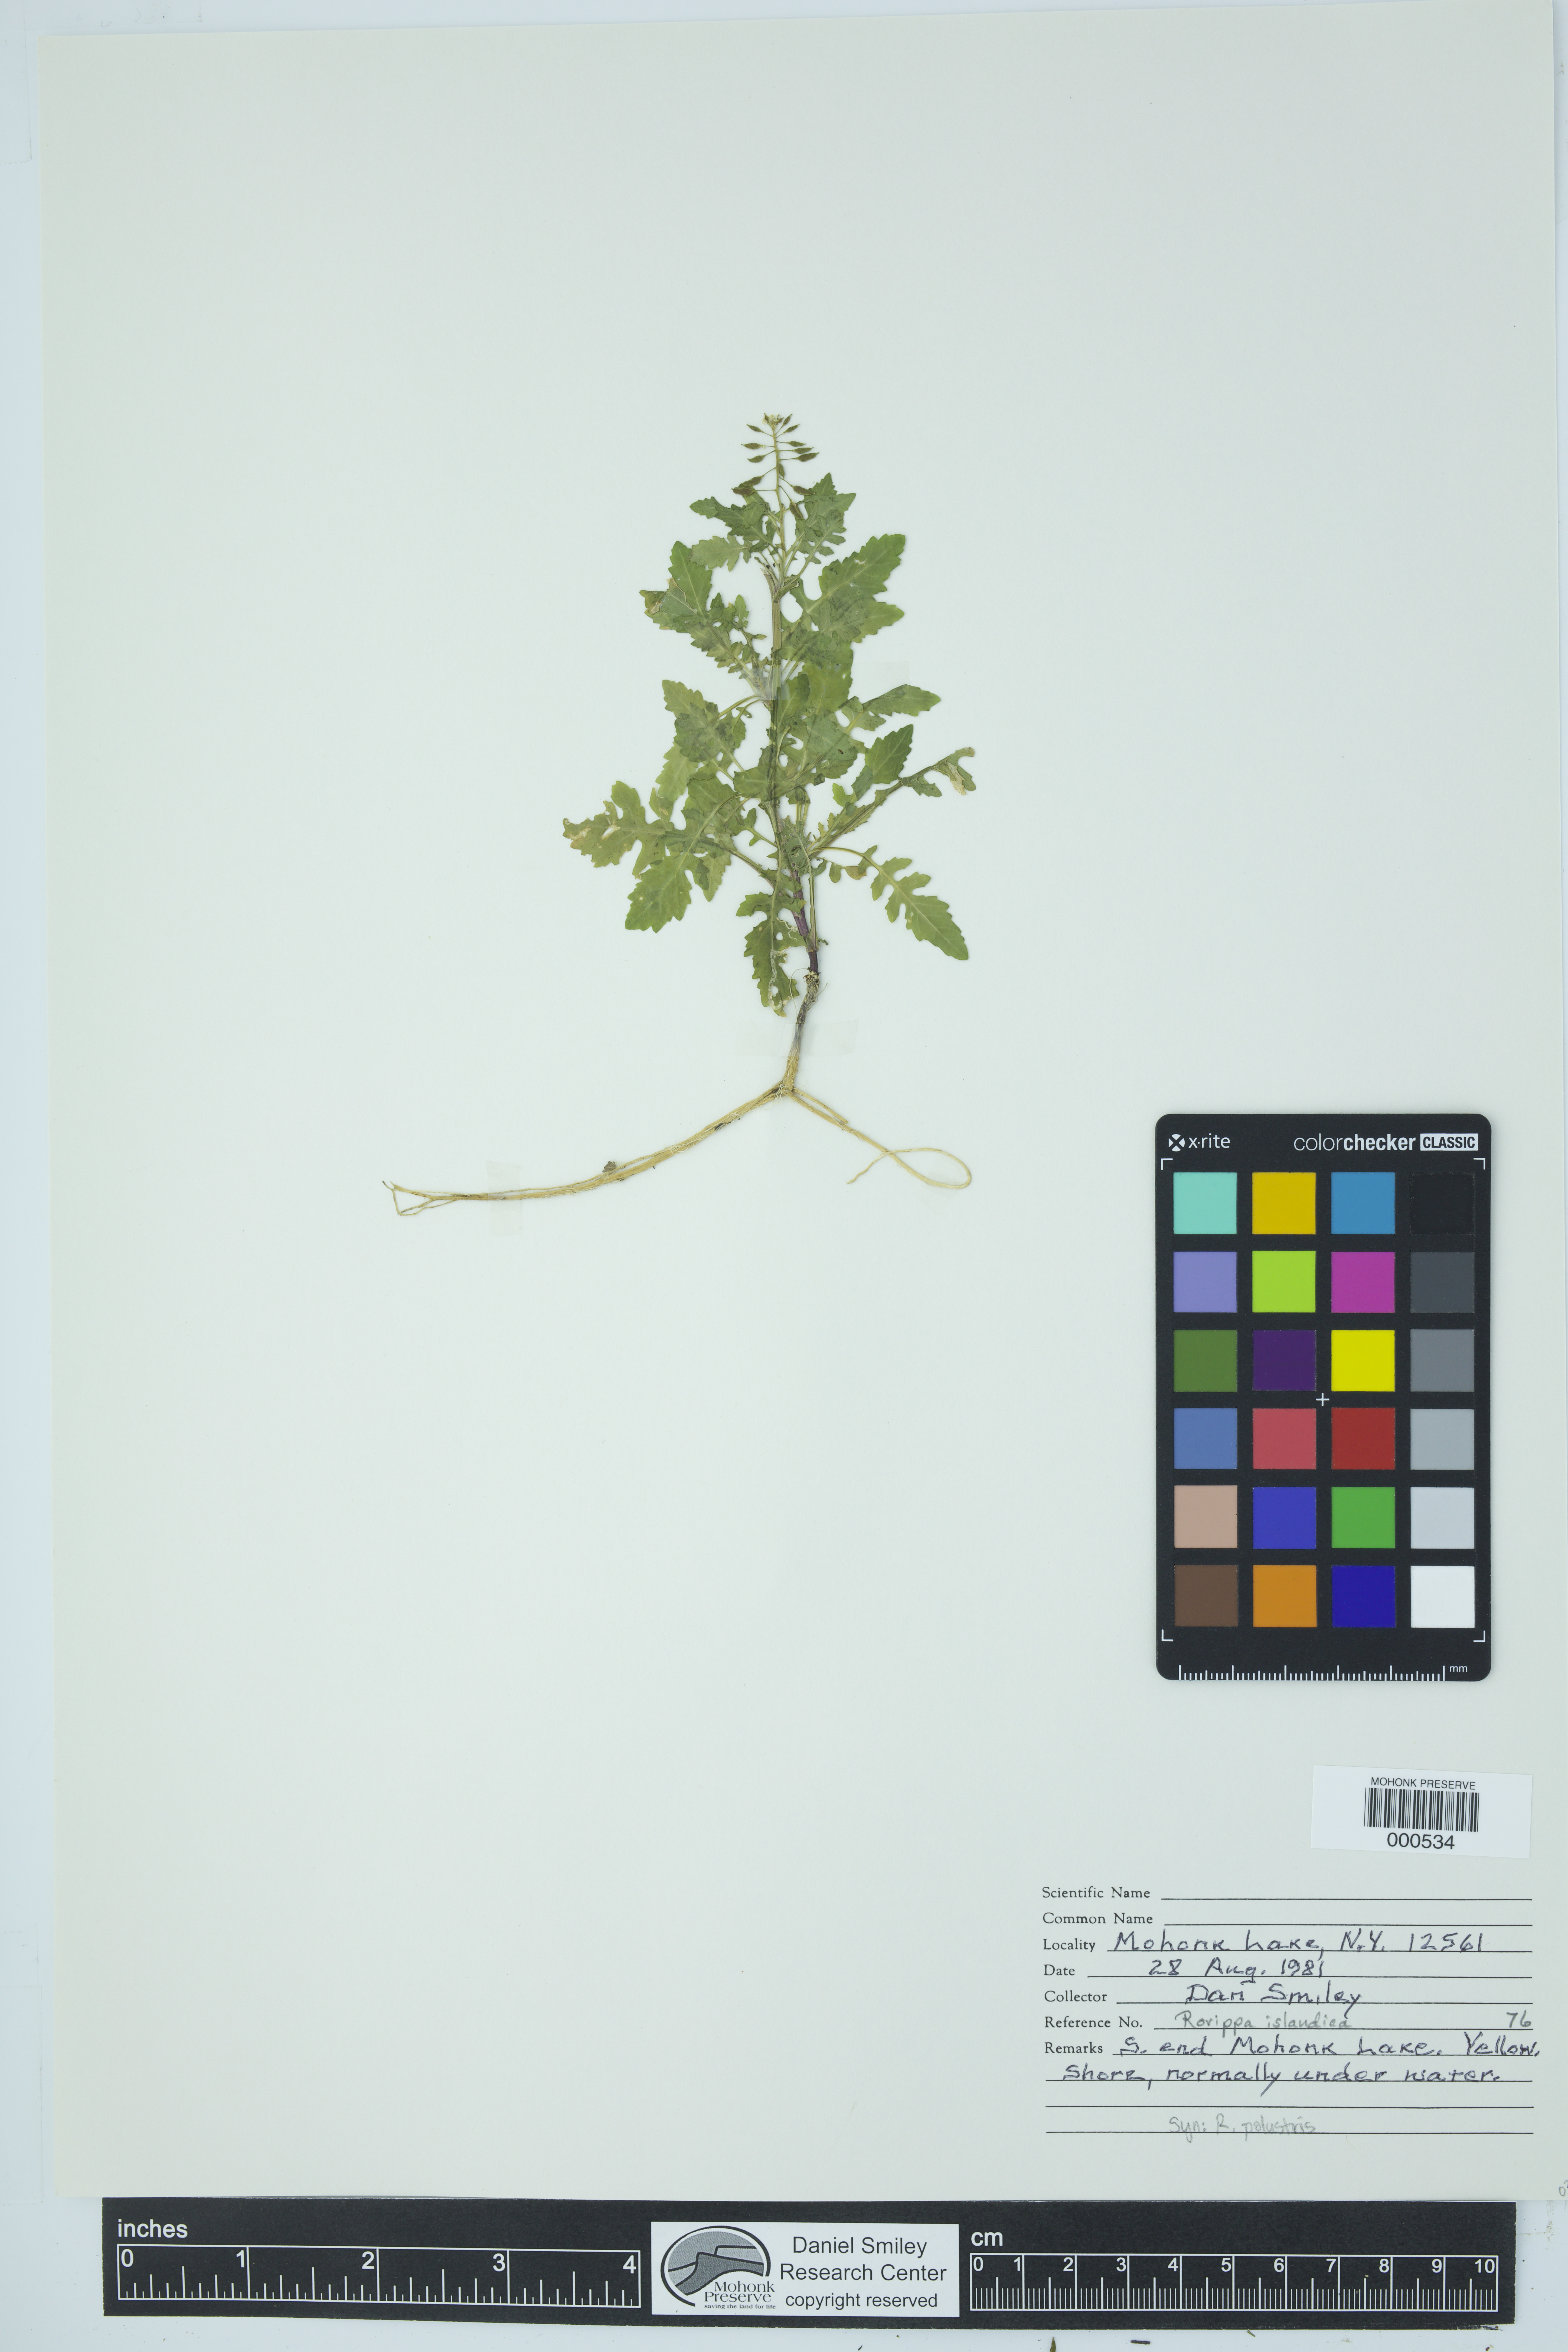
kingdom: Plantae
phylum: Tracheophyta
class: Magnoliopsida
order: Brassicales
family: Brassicaceae
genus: Rorippa
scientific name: Rorippa islandica
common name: Marsh cress
